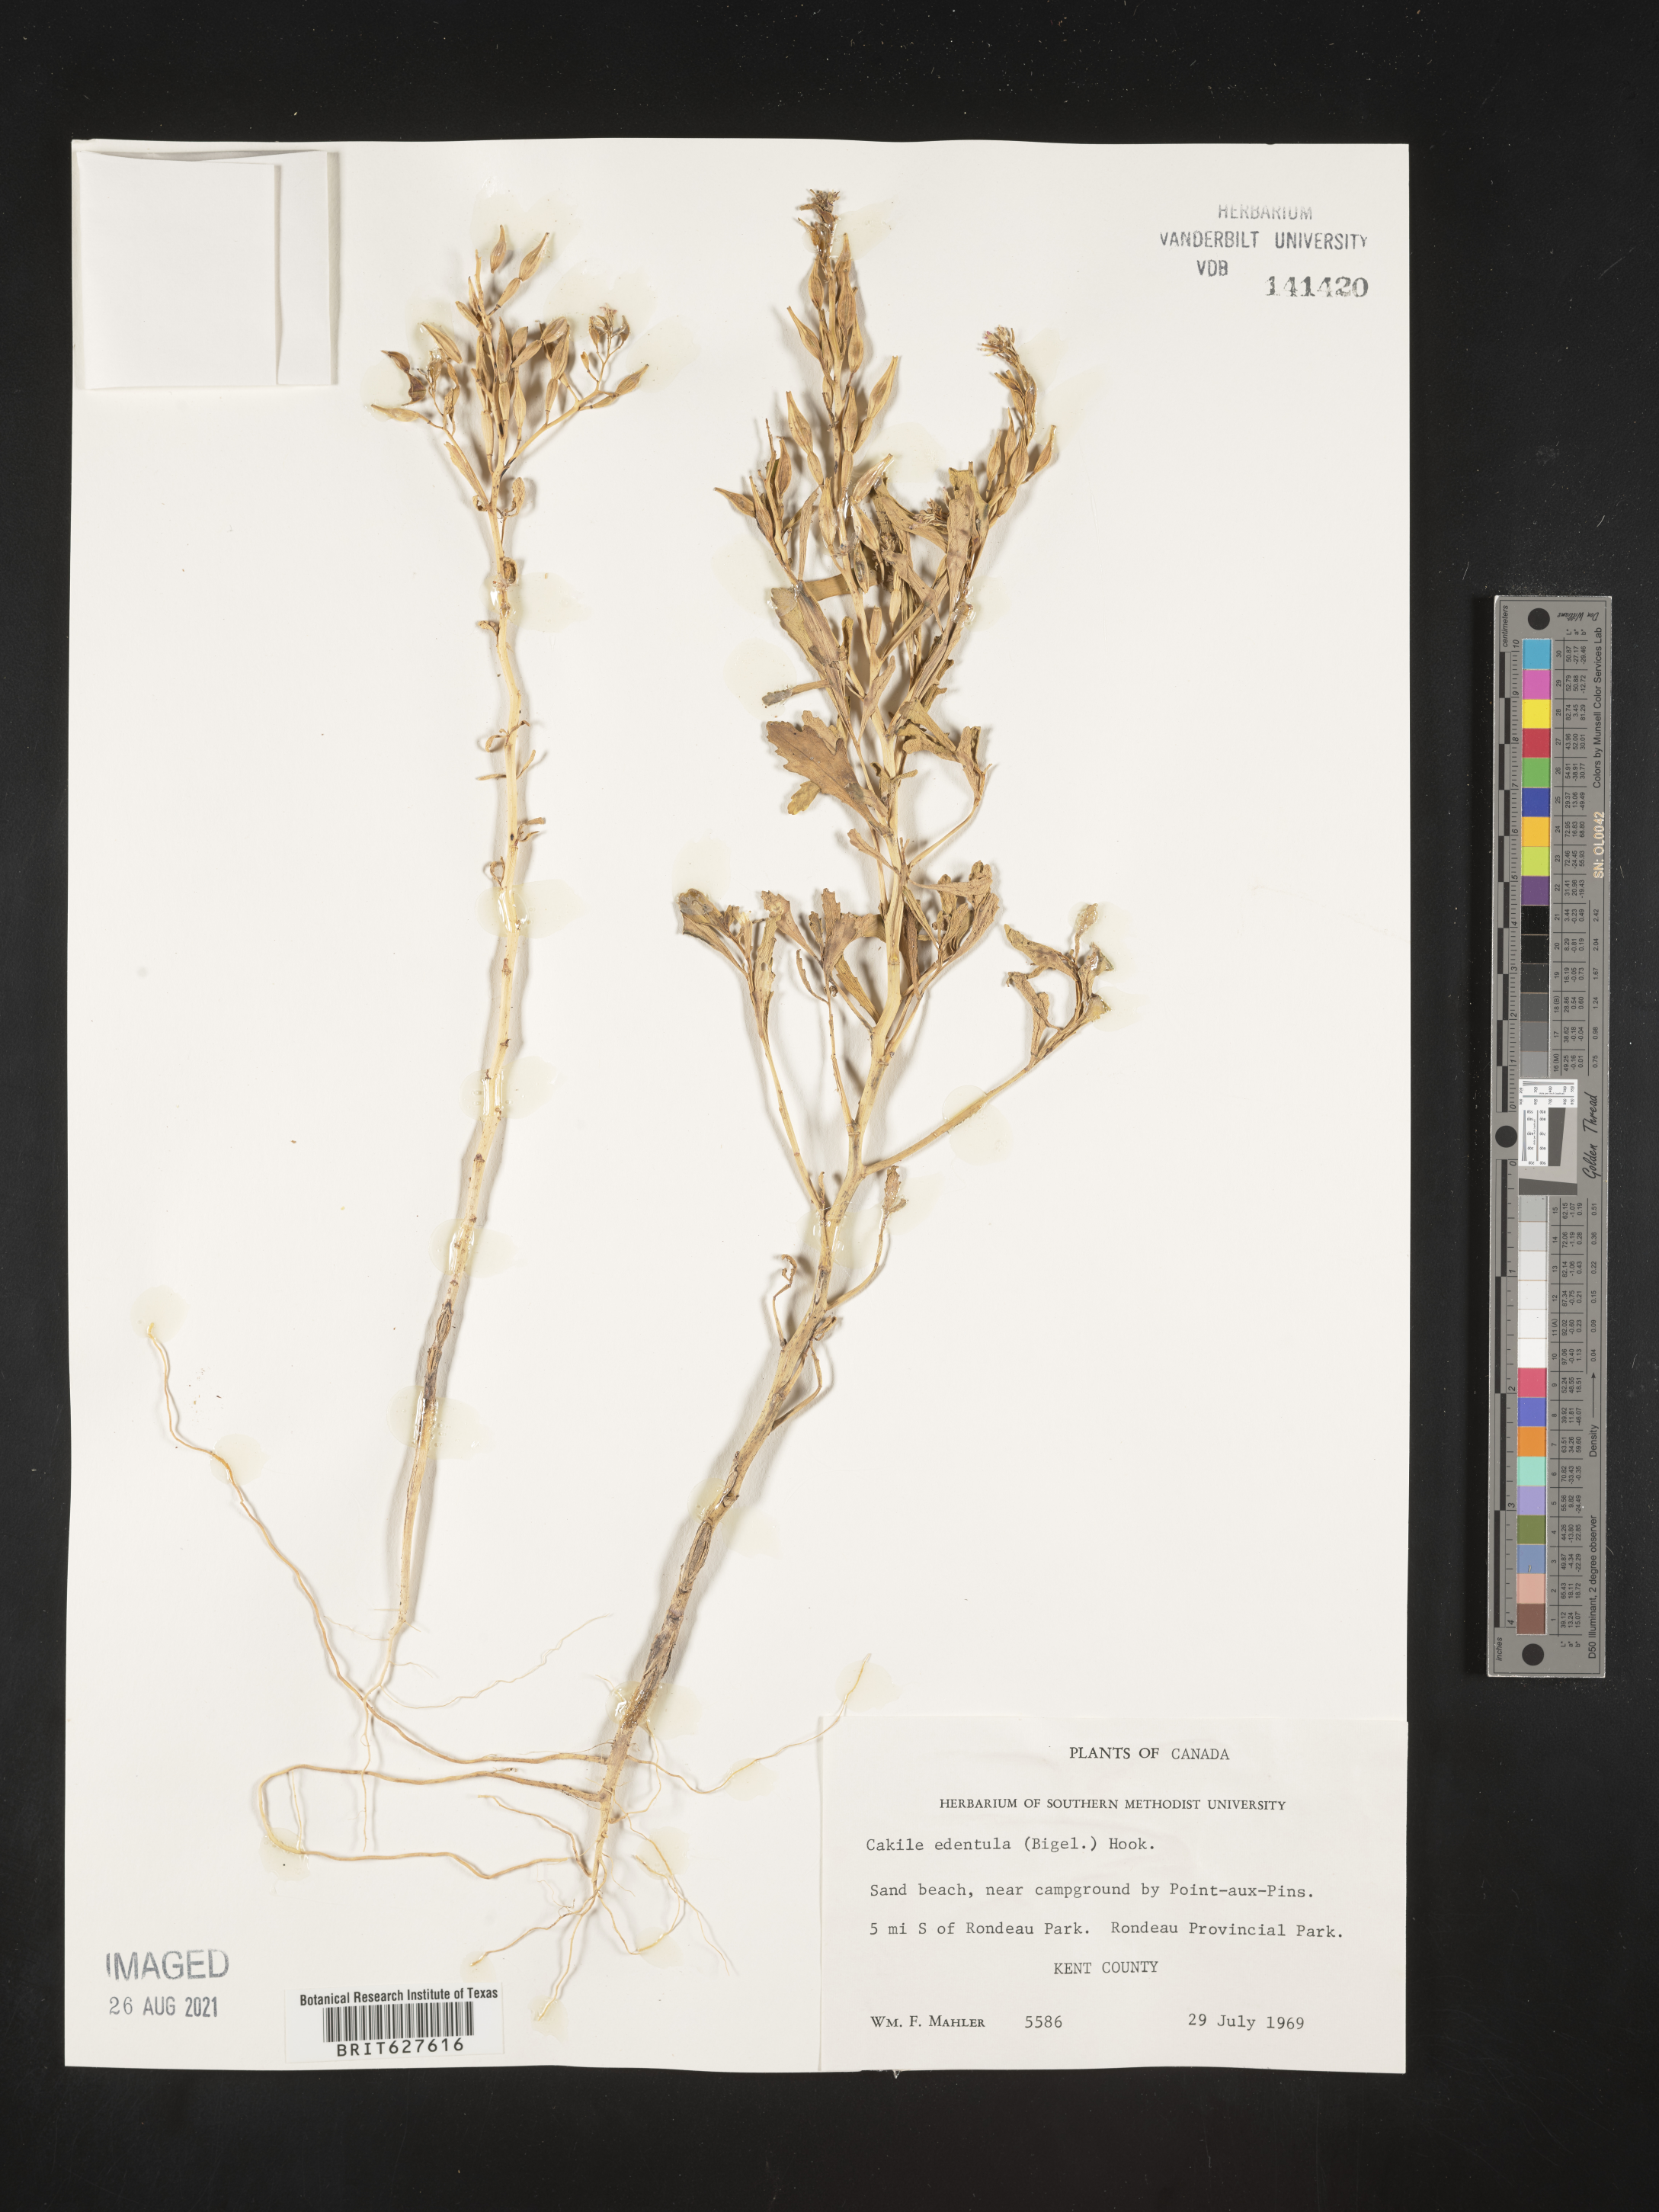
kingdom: Plantae
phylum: Tracheophyta
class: Magnoliopsida
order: Brassicales
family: Brassicaceae
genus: Cakile
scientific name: Cakile edentula
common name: American sea rocket
